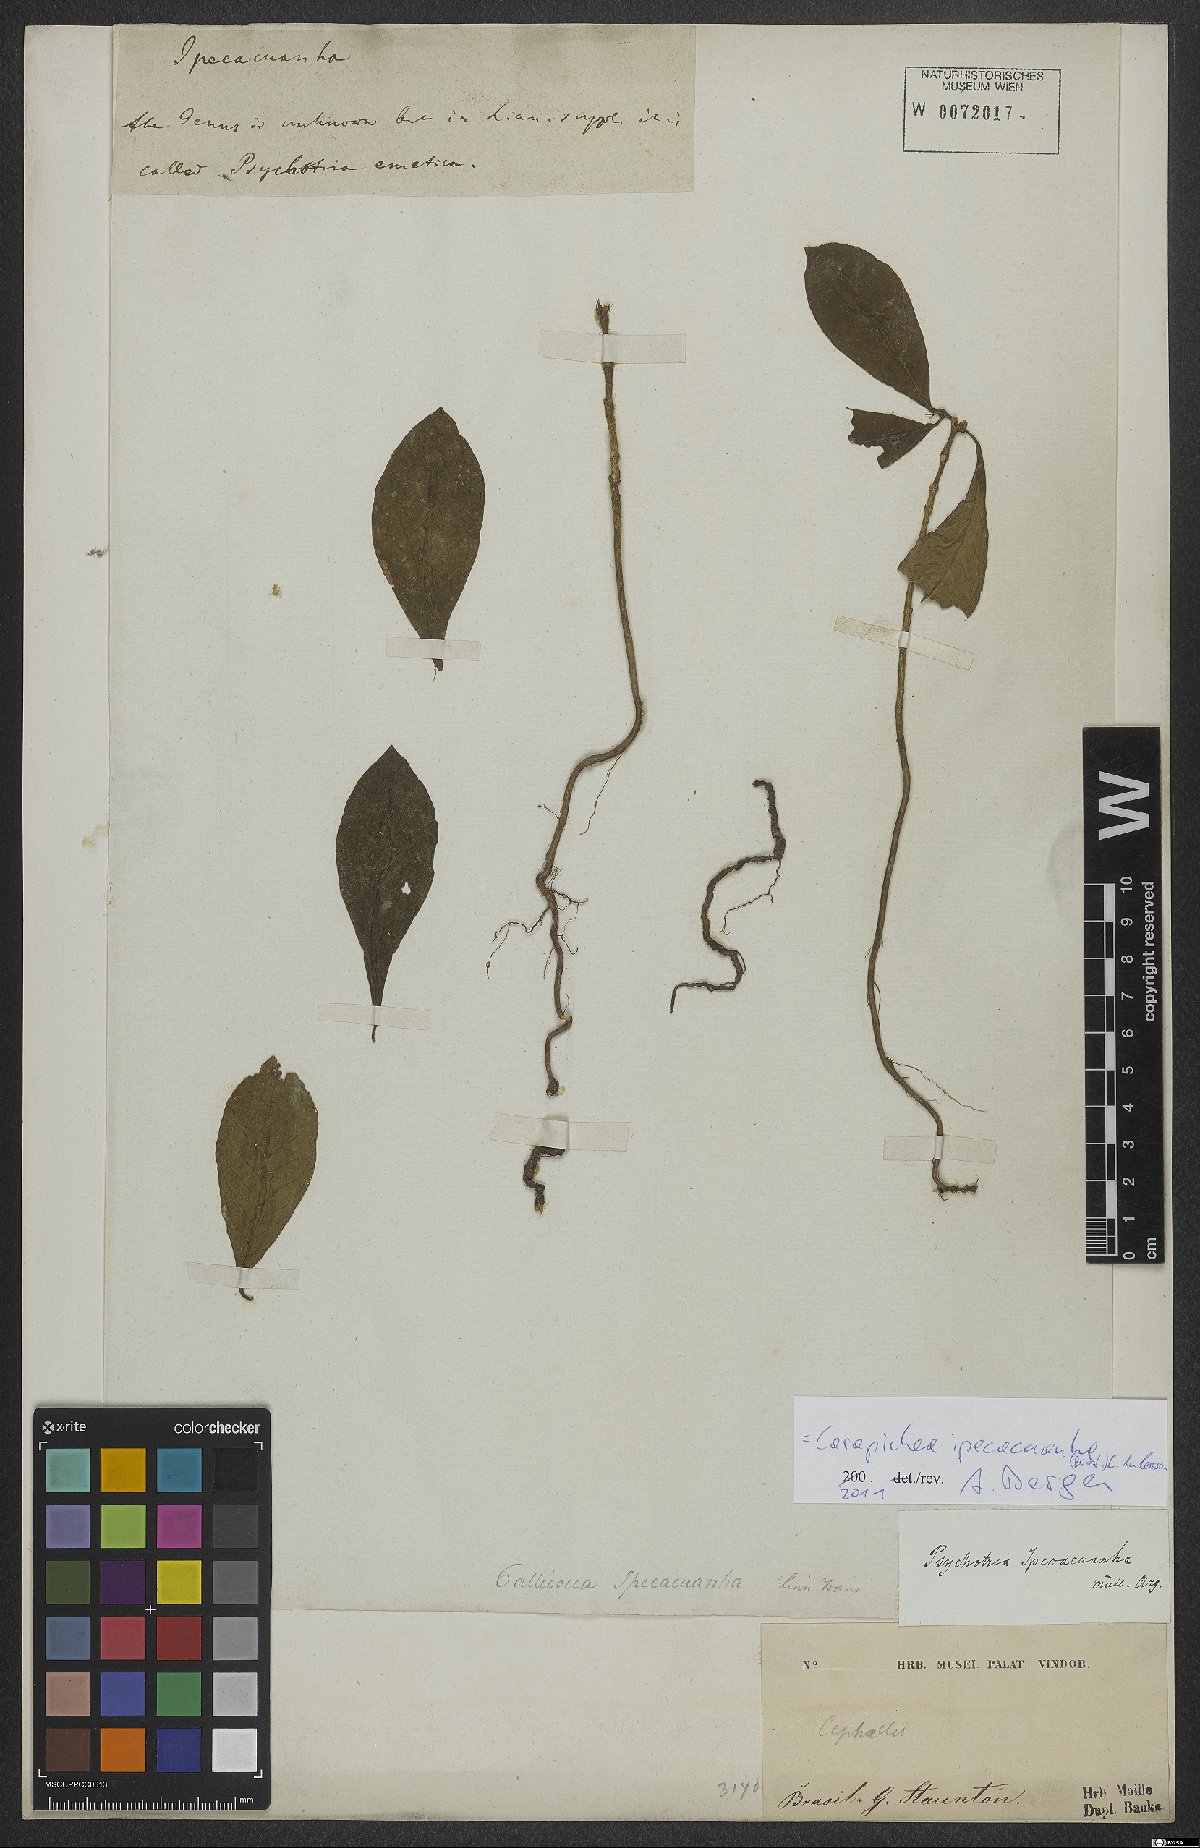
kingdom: Plantae
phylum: Tracheophyta
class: Magnoliopsida
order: Gentianales
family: Rubiaceae
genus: Carapichea
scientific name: Carapichea ipecacuanha
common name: Ipecac
